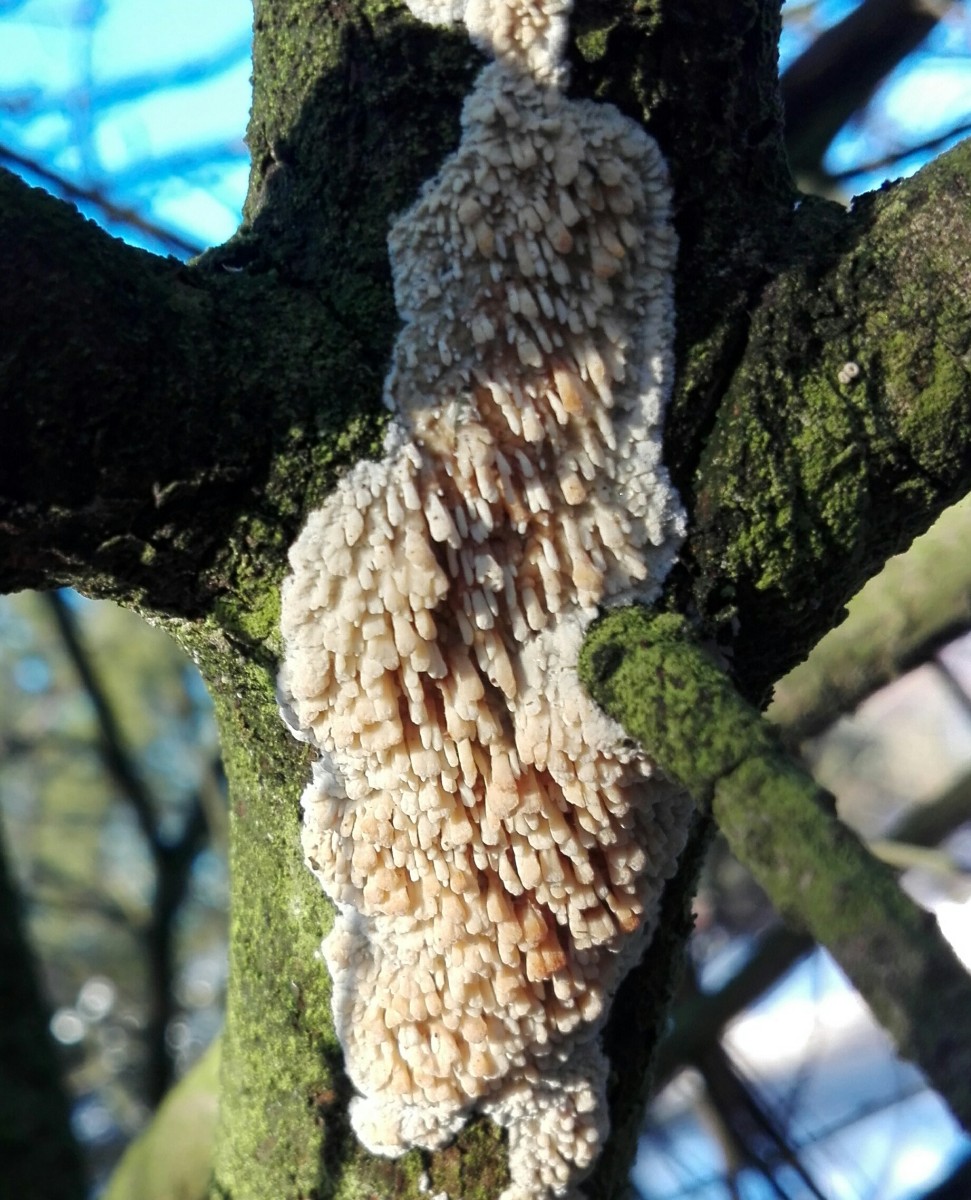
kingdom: Fungi
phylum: Basidiomycota
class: Agaricomycetes
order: Hymenochaetales
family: Schizoporaceae
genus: Xylodon
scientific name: Xylodon radula
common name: grovtandet kalkskind
